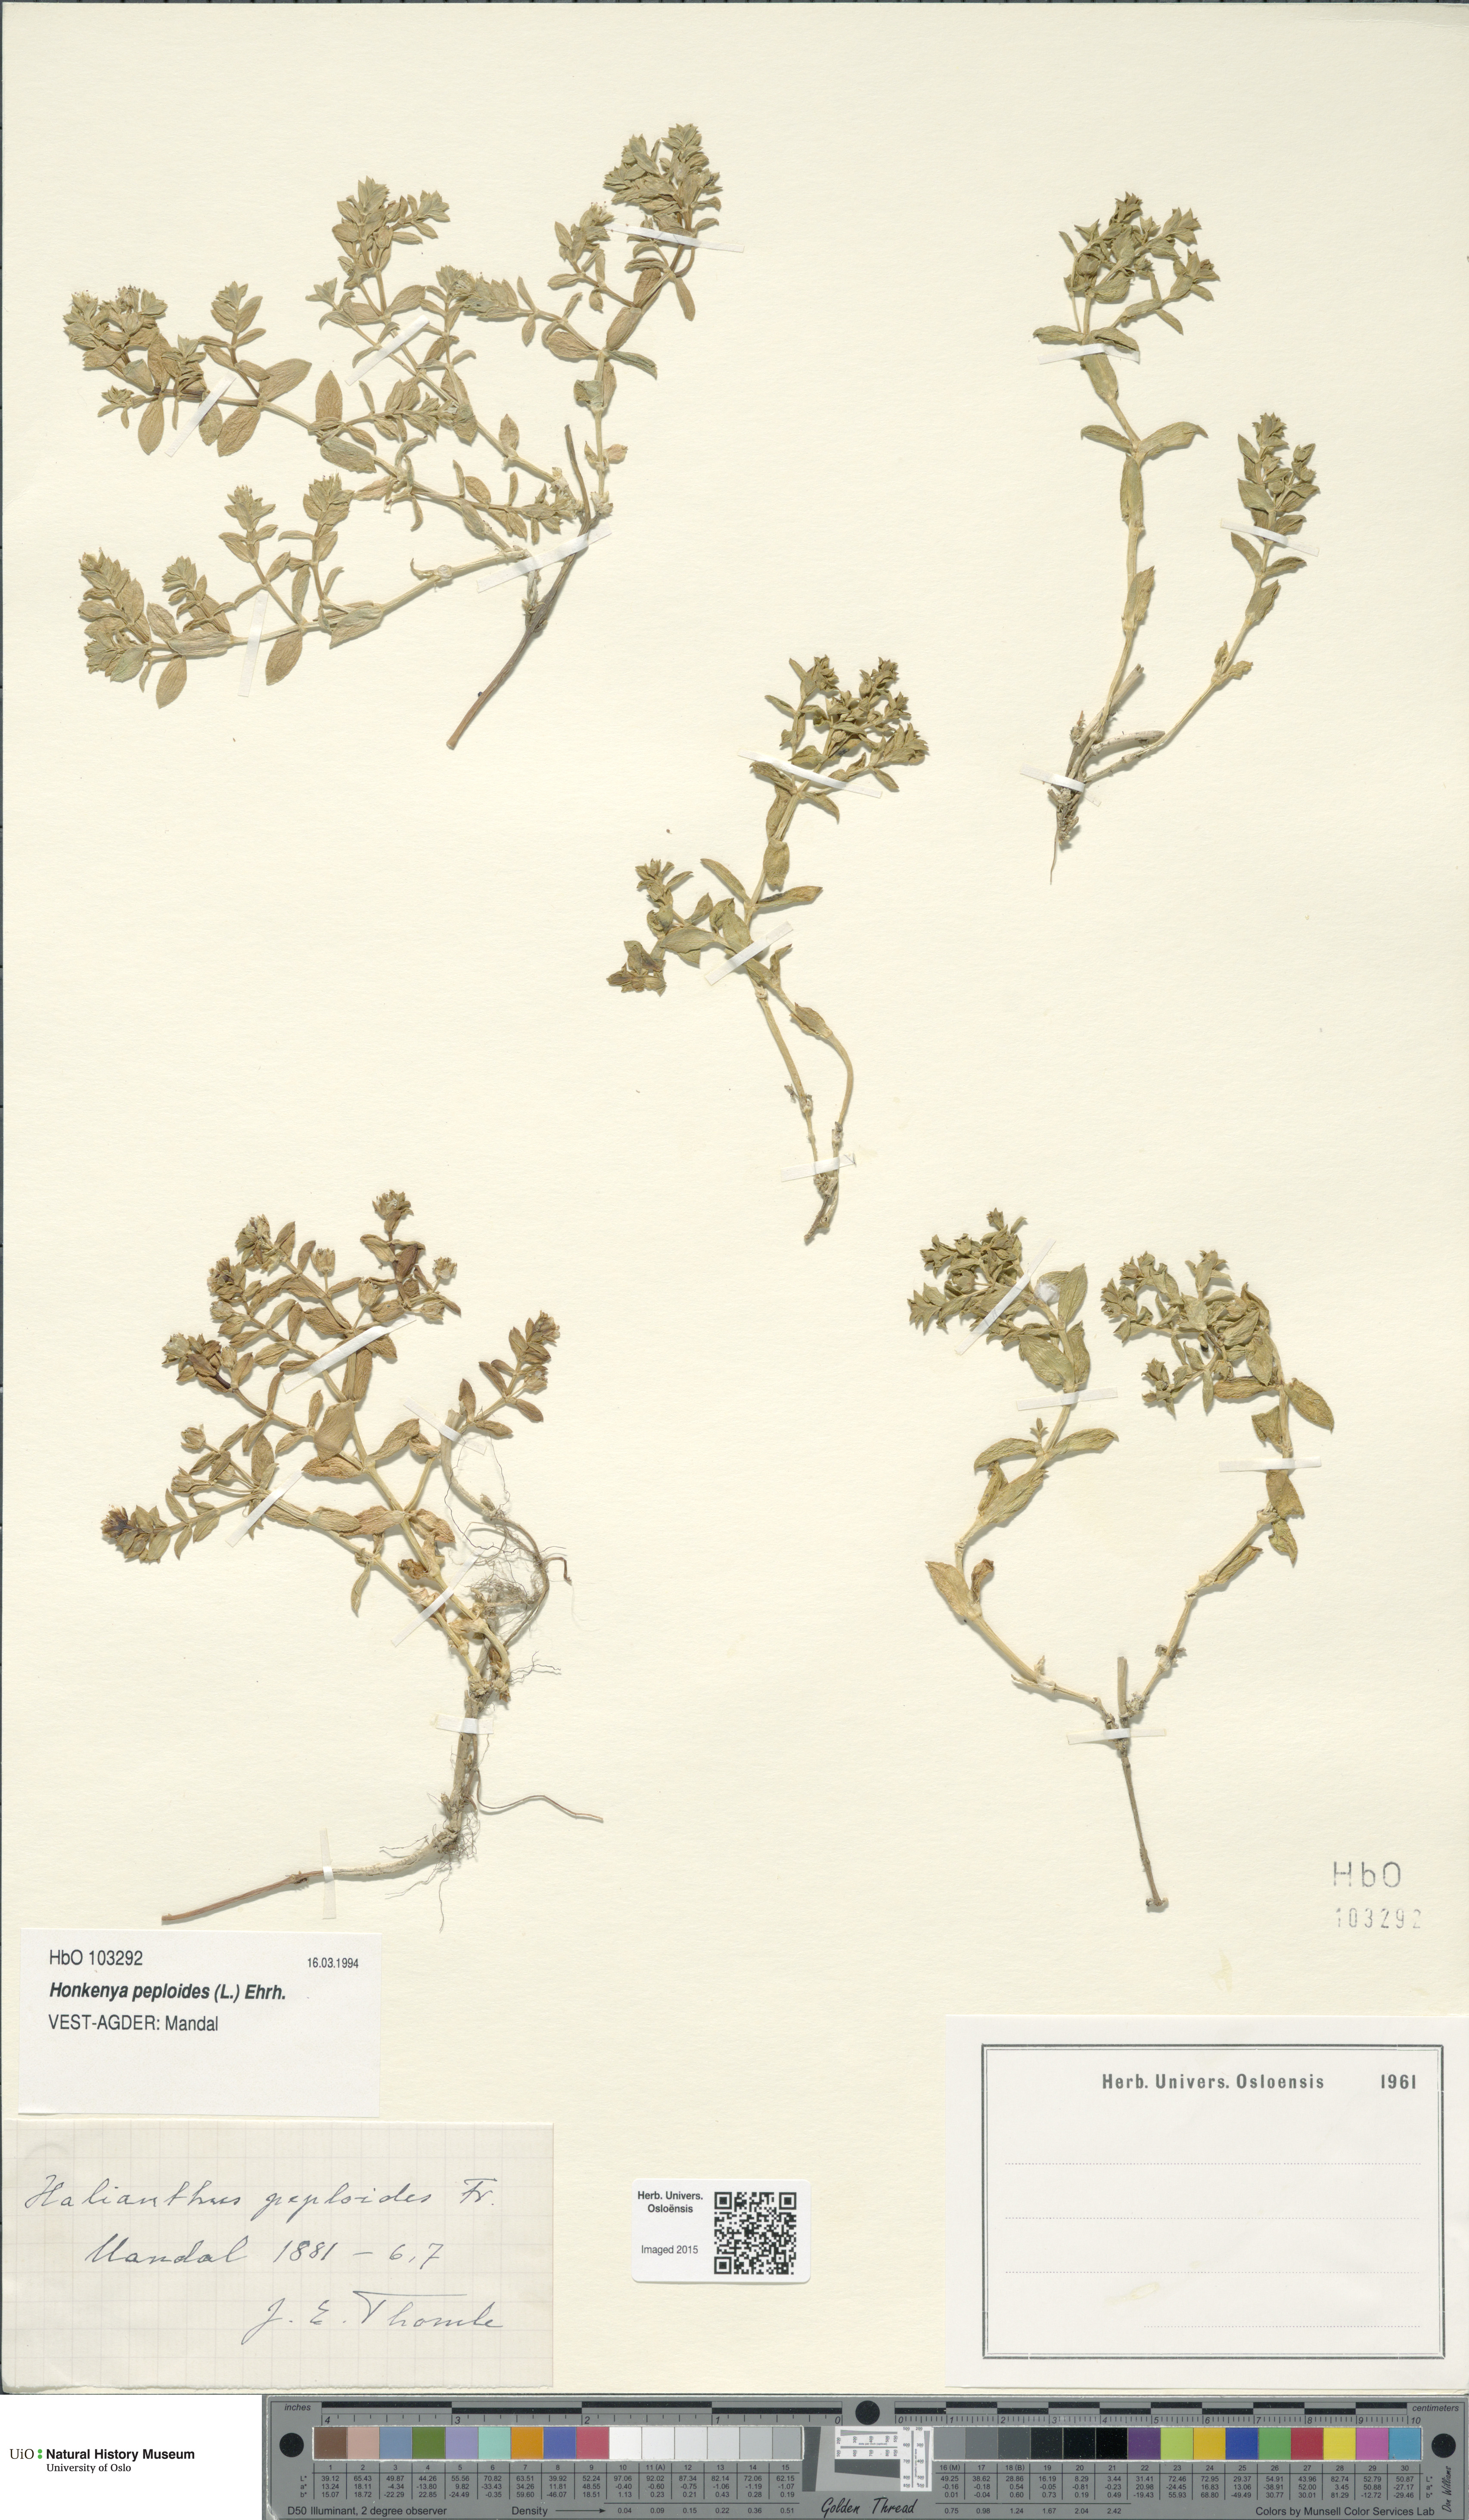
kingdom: Plantae
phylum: Tracheophyta
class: Magnoliopsida
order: Caryophyllales
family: Caryophyllaceae
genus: Honckenya
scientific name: Honckenya peploides
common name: Sea sandwort
